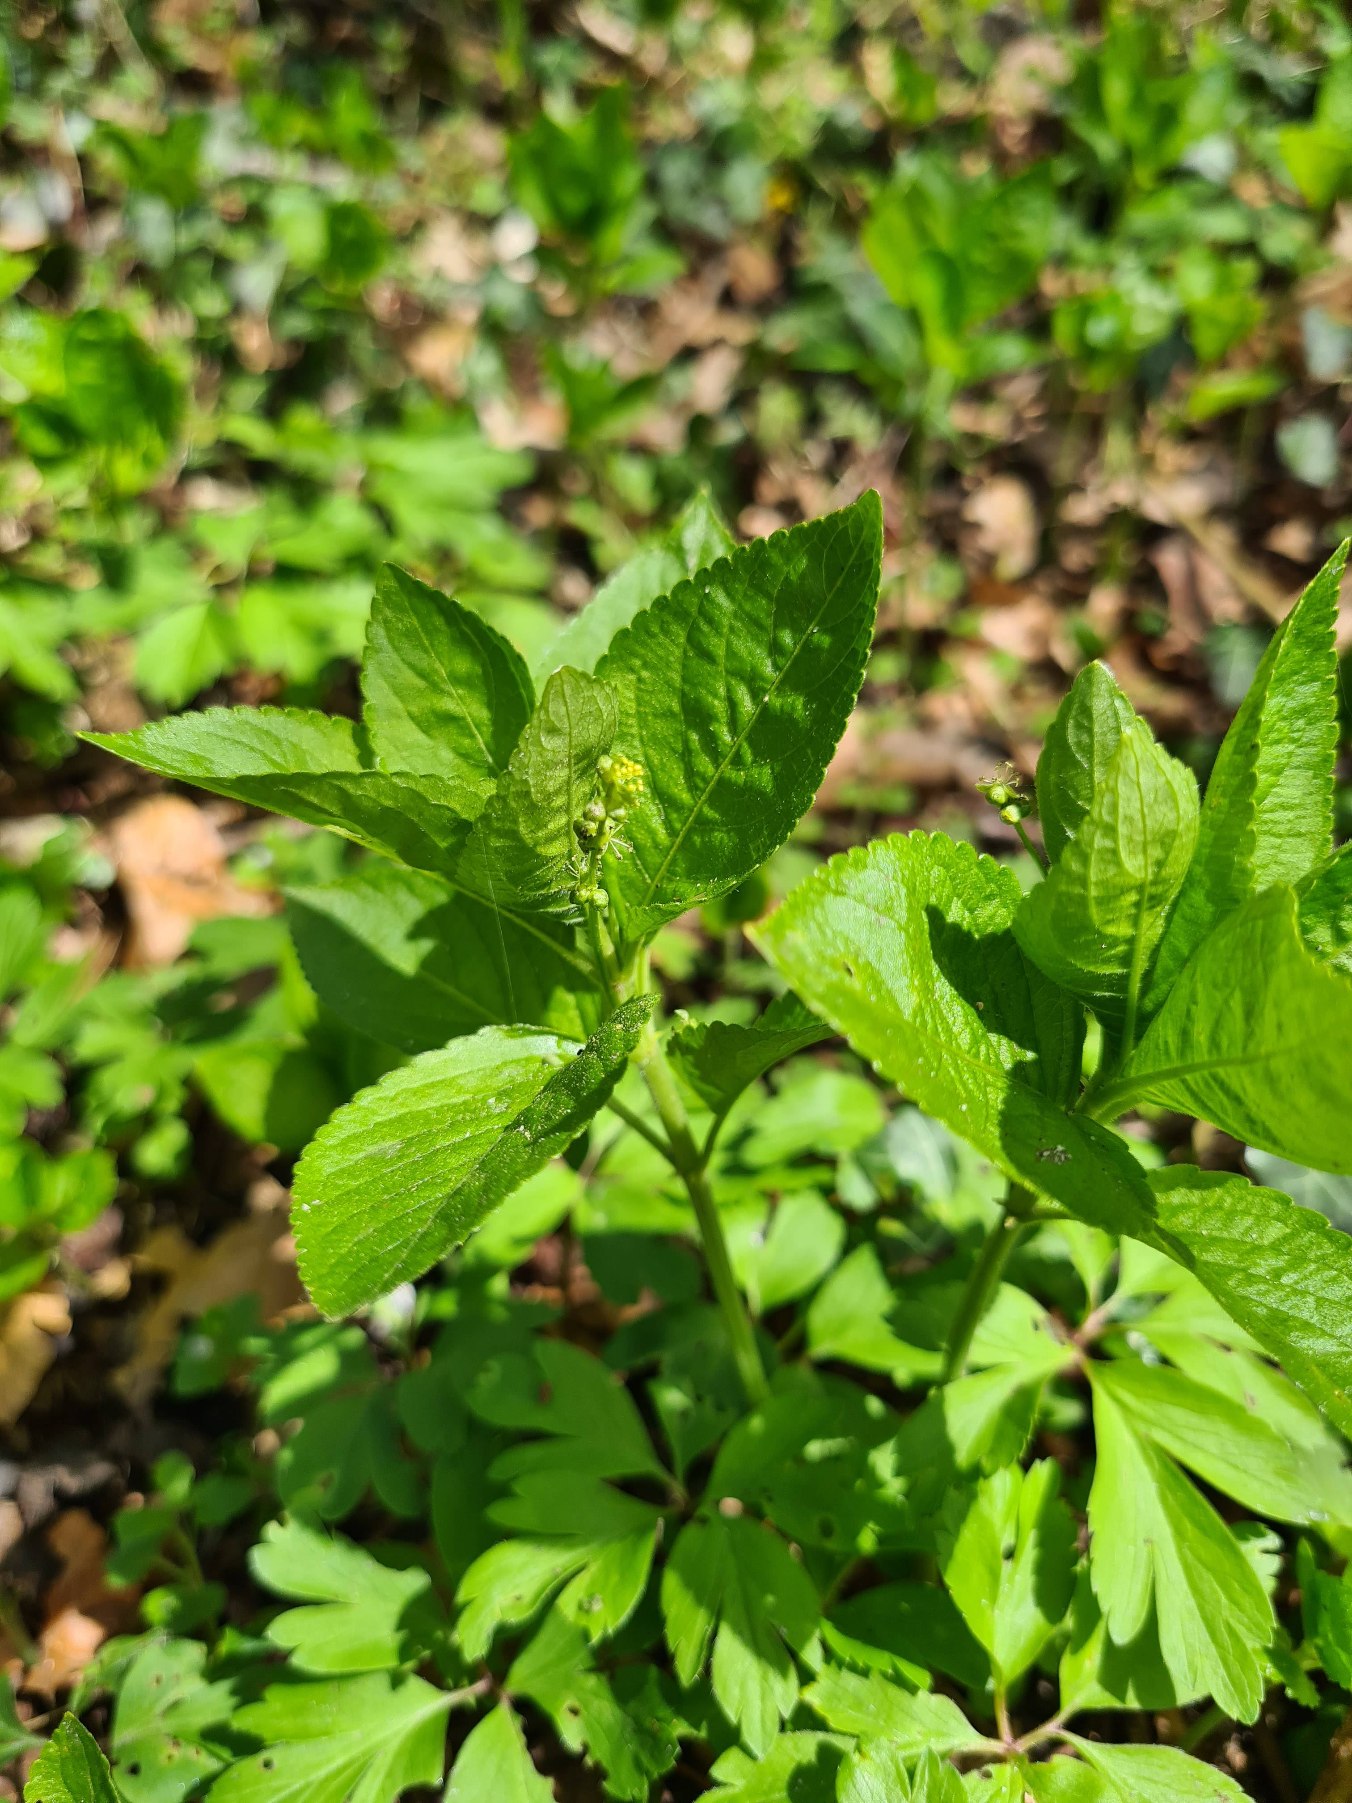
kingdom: Plantae
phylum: Tracheophyta
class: Magnoliopsida
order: Malpighiales
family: Euphorbiaceae
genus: Mercurialis
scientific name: Mercurialis perennis
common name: Almindelig bingelurt
